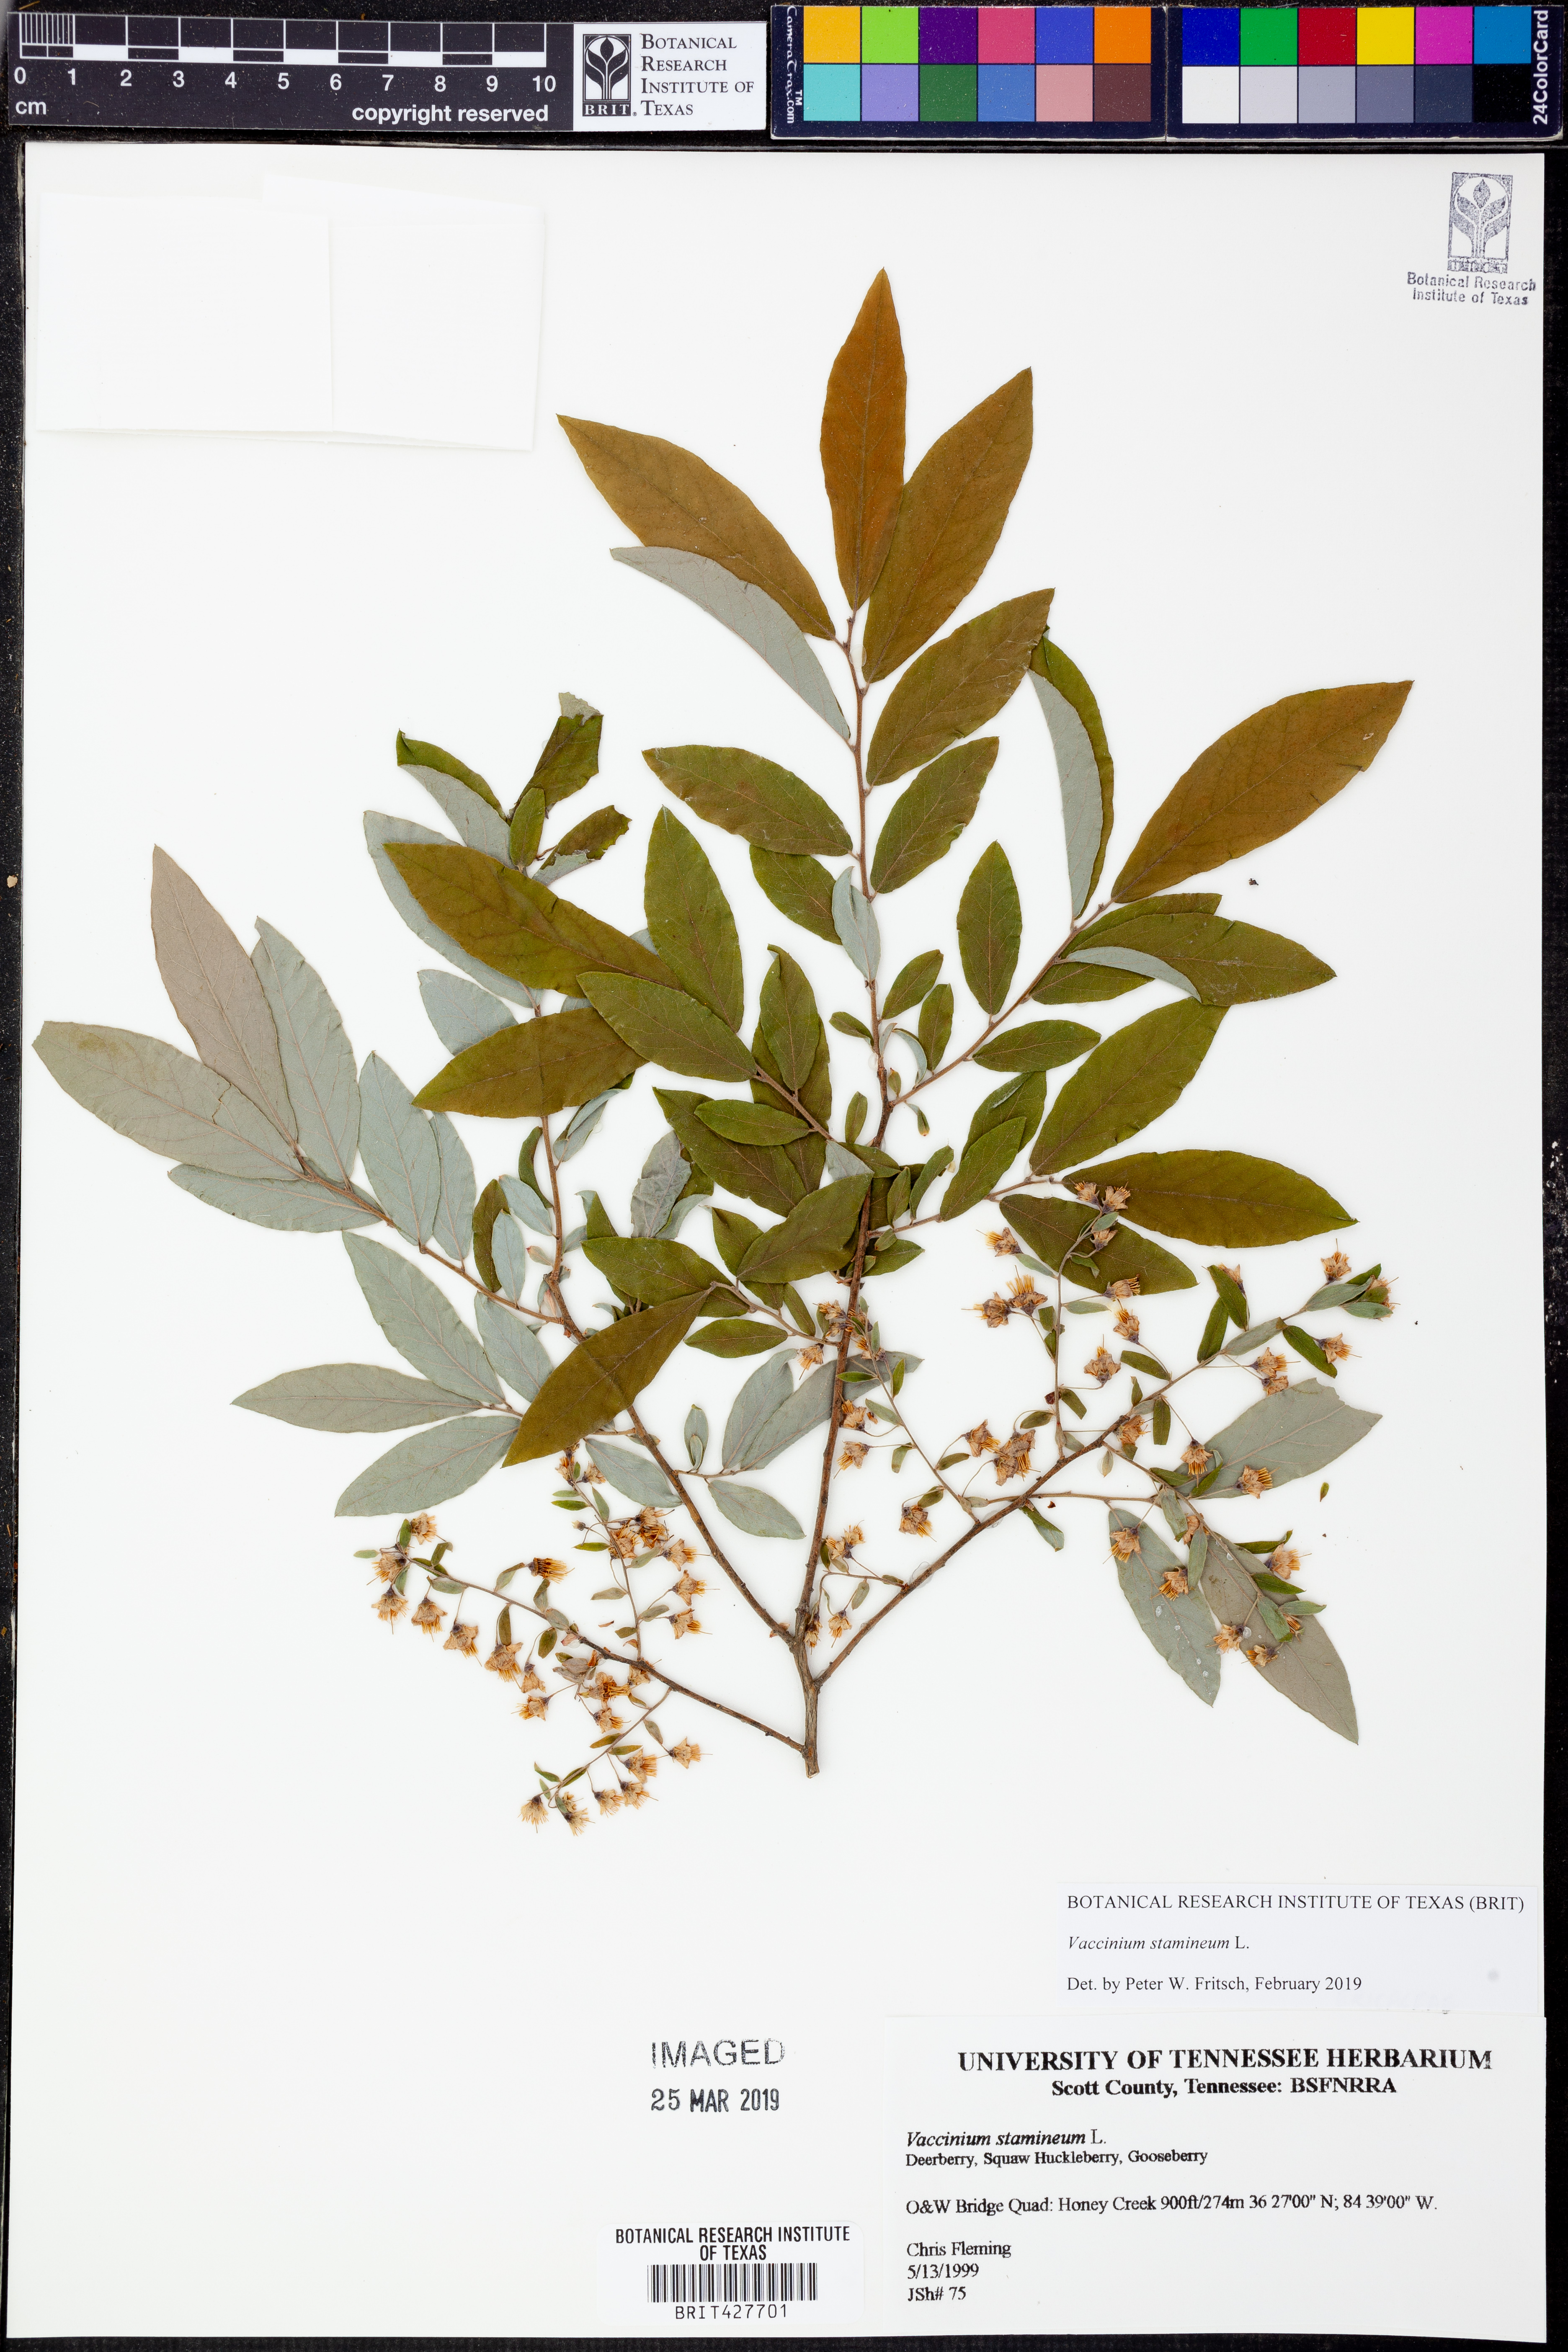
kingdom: Plantae
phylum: Tracheophyta
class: Magnoliopsida
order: Ericales
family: Ericaceae
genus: Vaccinium
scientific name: Vaccinium stamineum
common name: Deerberry
